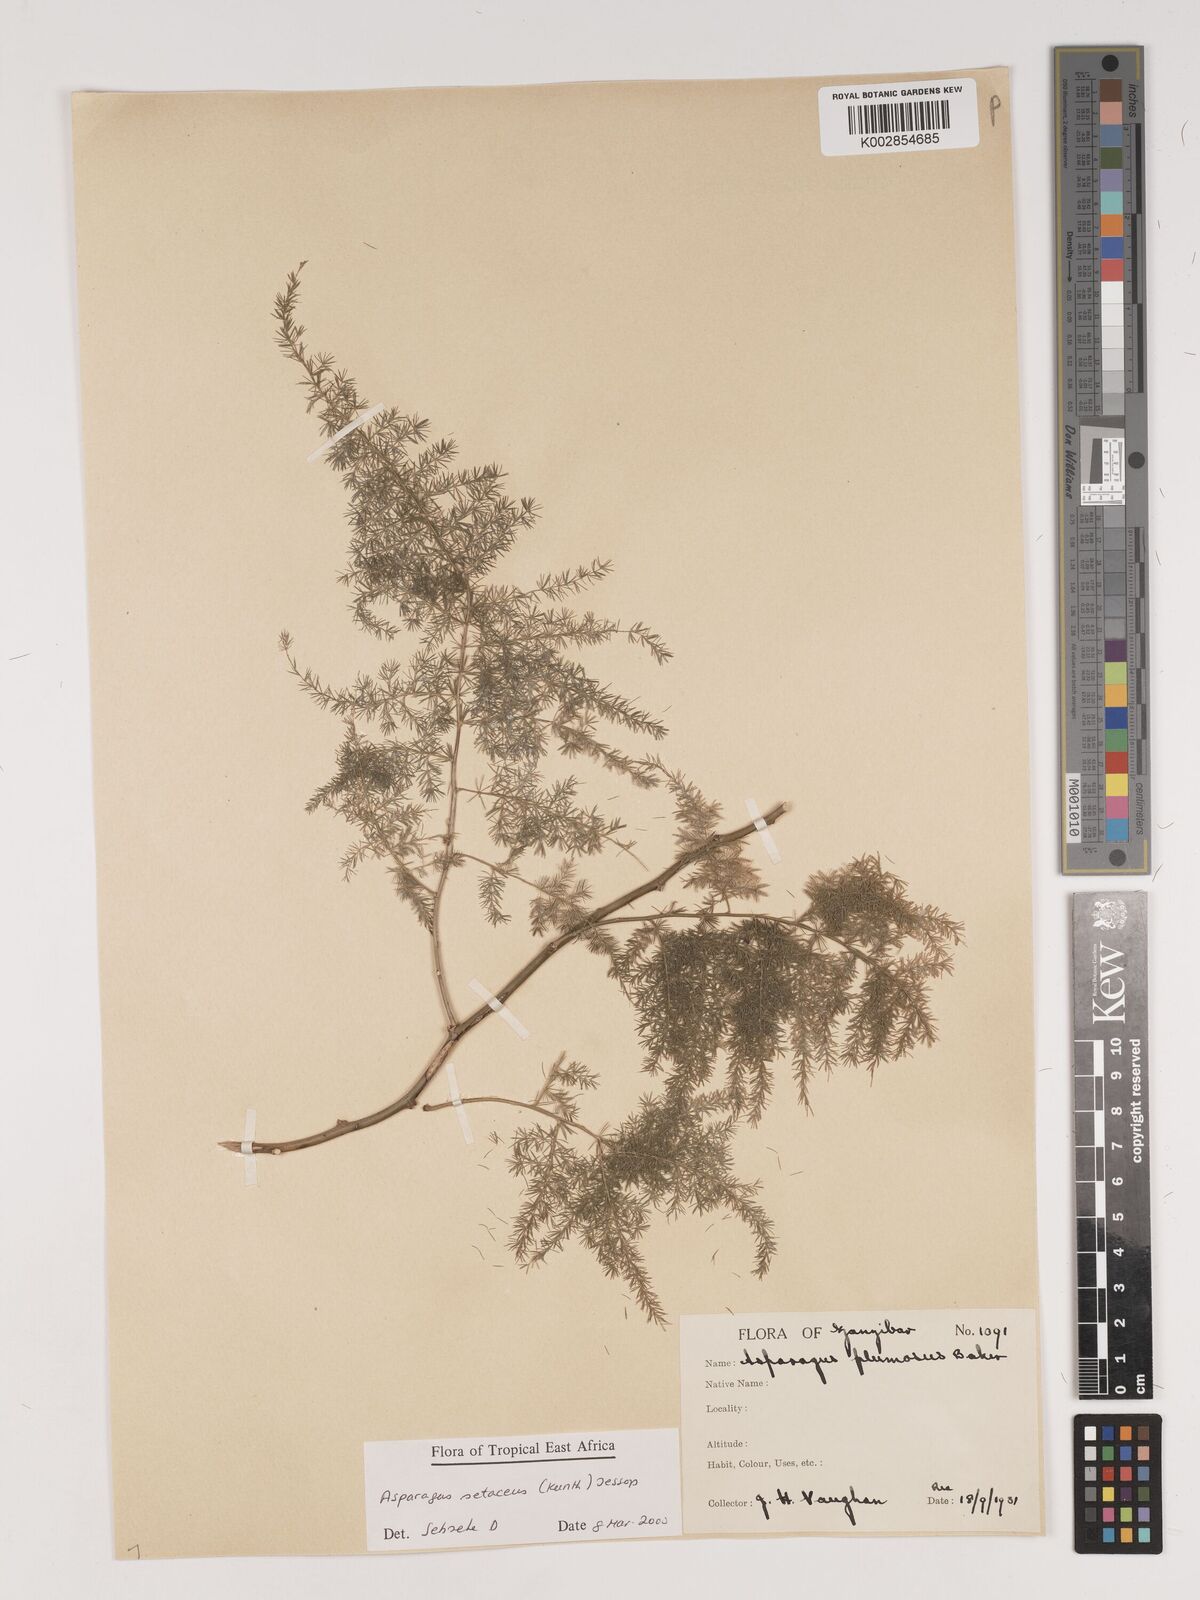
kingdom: Plantae
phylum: Tracheophyta
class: Liliopsida
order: Asparagales
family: Asparagaceae
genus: Asparagus
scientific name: Asparagus setaceus
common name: Common asparagus fern
